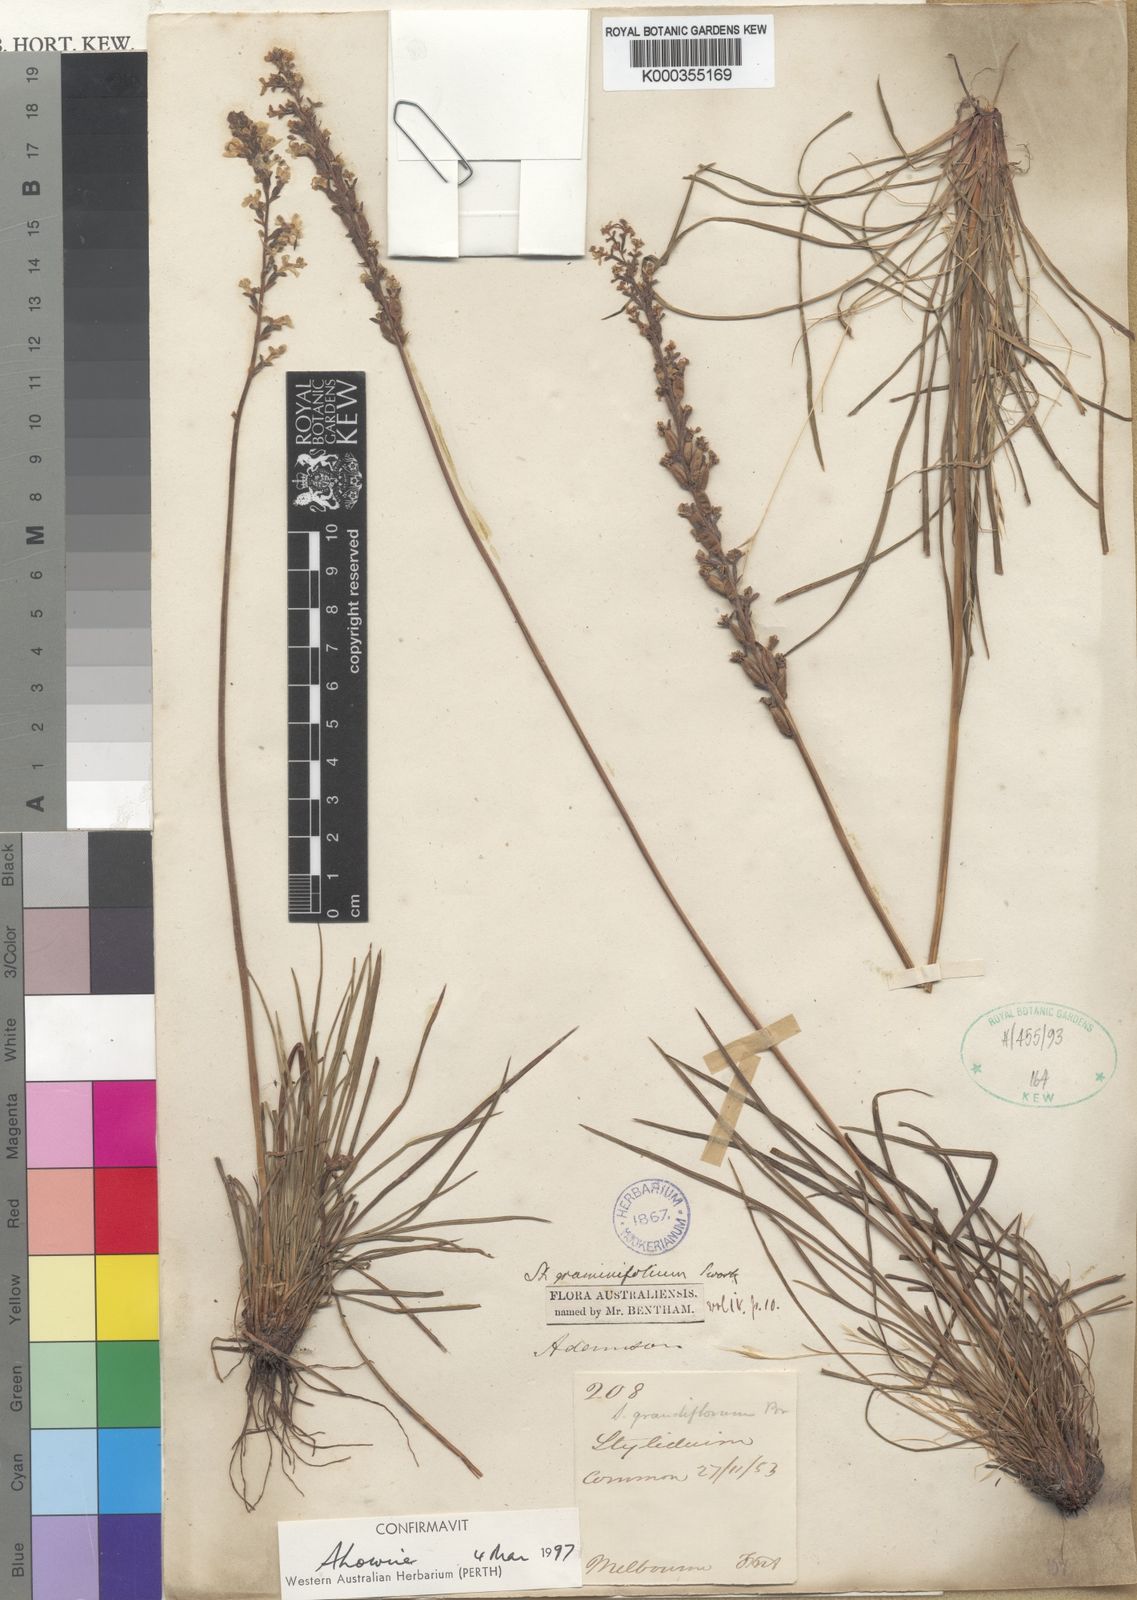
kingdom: Plantae
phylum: Tracheophyta
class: Magnoliopsida
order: Asterales
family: Stylidiaceae
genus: Stylidium
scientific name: Stylidium graminifolium
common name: Grass triggerplant
